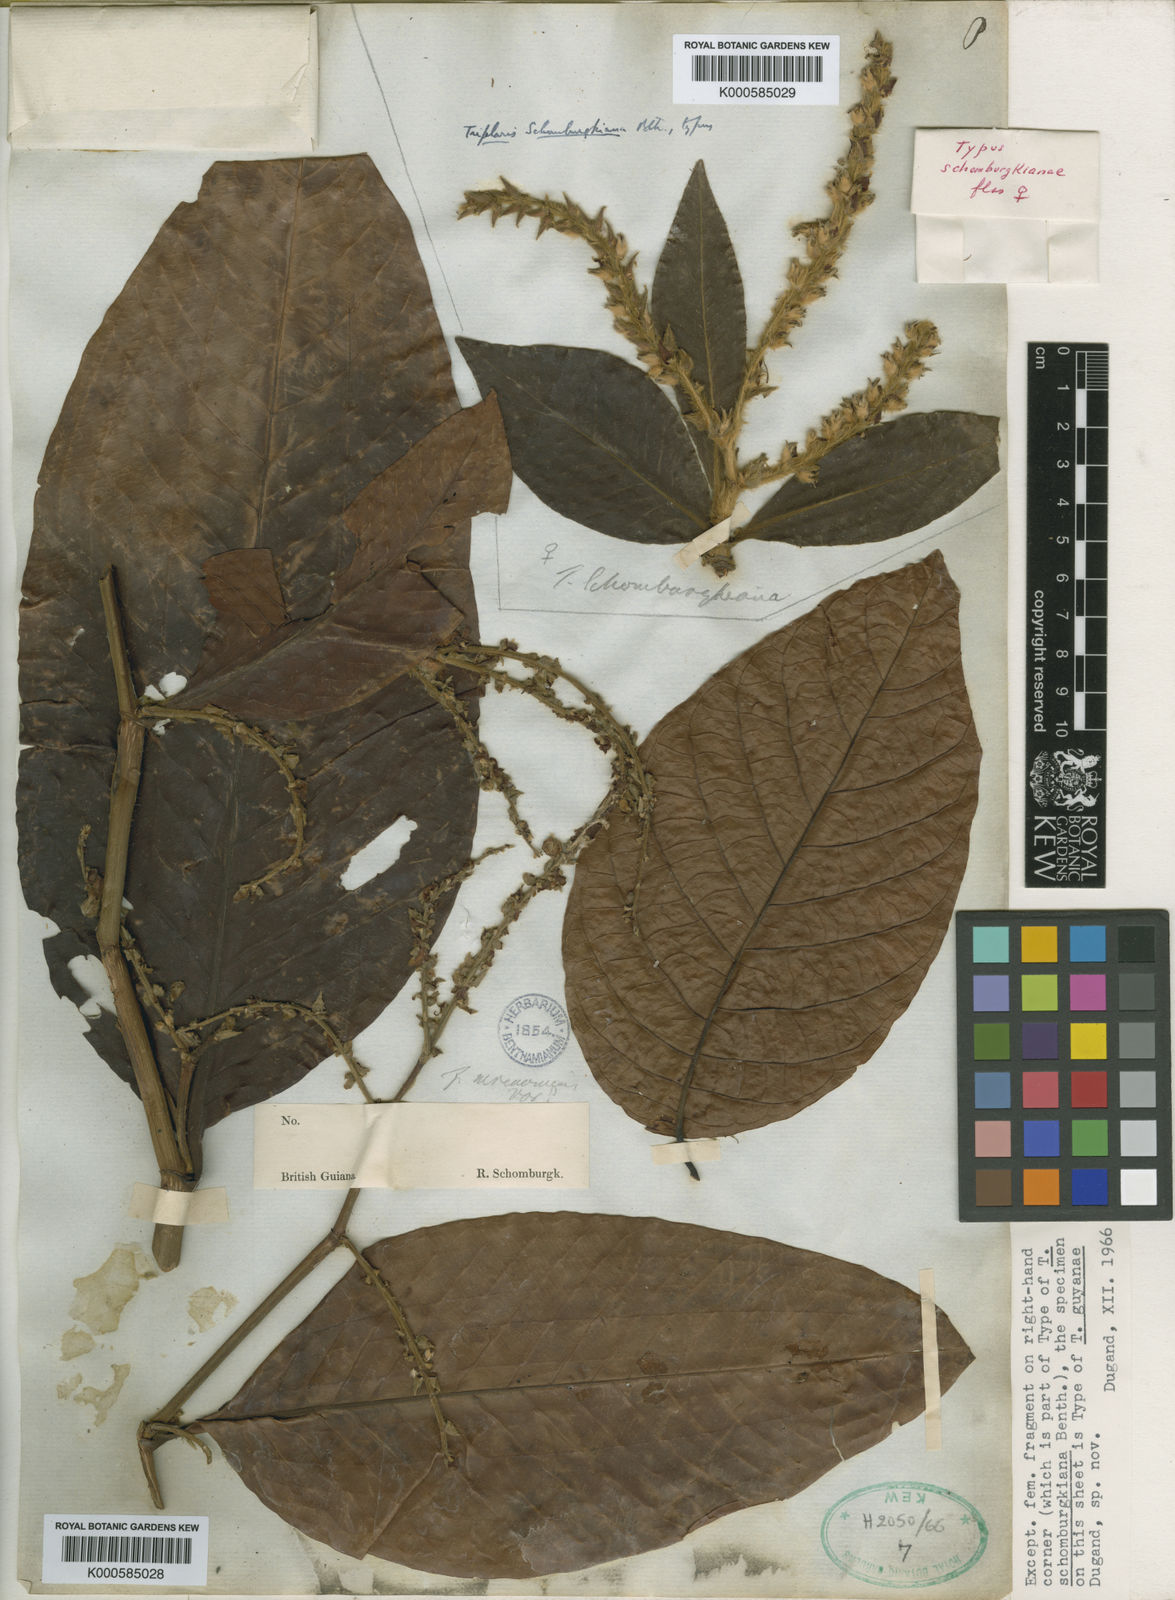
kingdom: Plantae
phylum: Tracheophyta
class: Magnoliopsida
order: Caryophyllales
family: Polygonaceae
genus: Triplaris
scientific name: Triplaris americana
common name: Ant-tree
